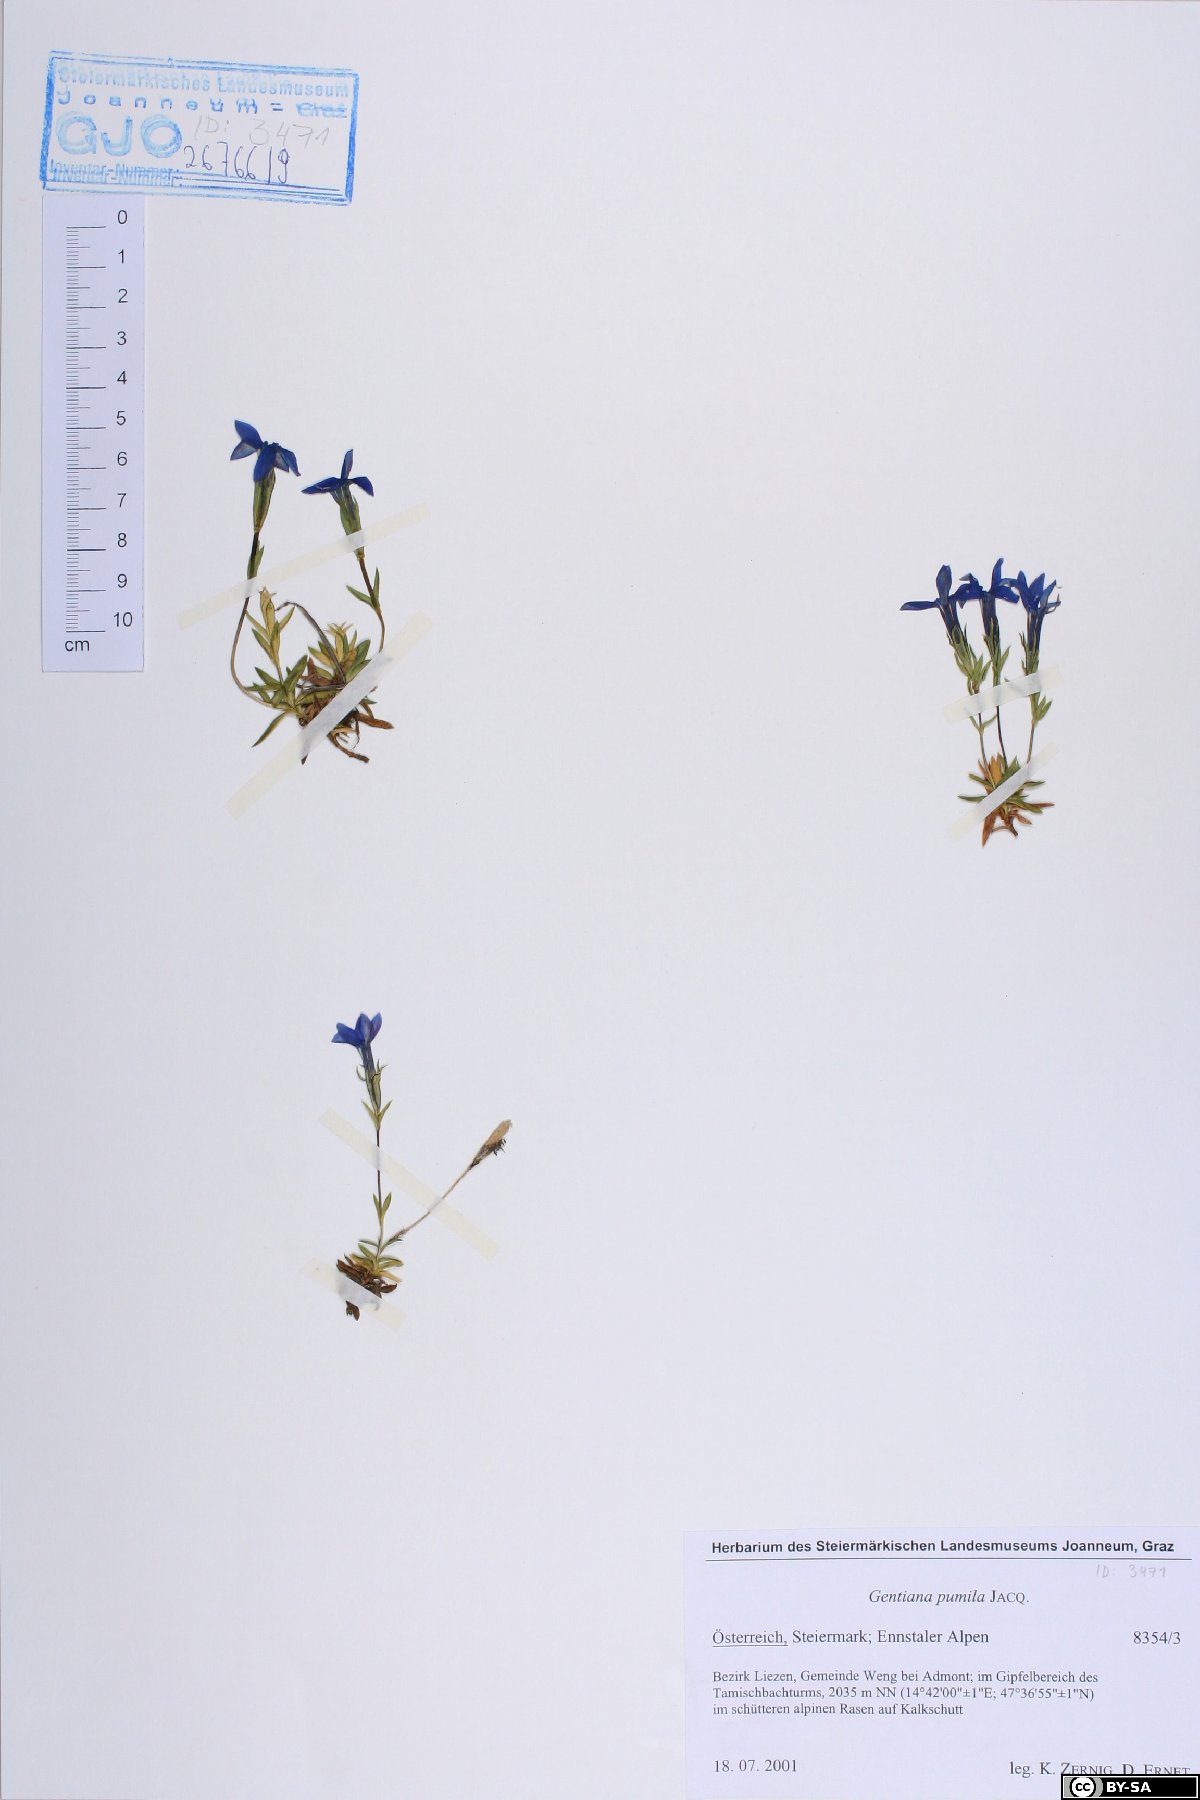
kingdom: Plantae
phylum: Tracheophyta
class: Magnoliopsida
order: Gentianales
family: Gentianaceae
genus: Gentiana
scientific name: Gentiana pumila
